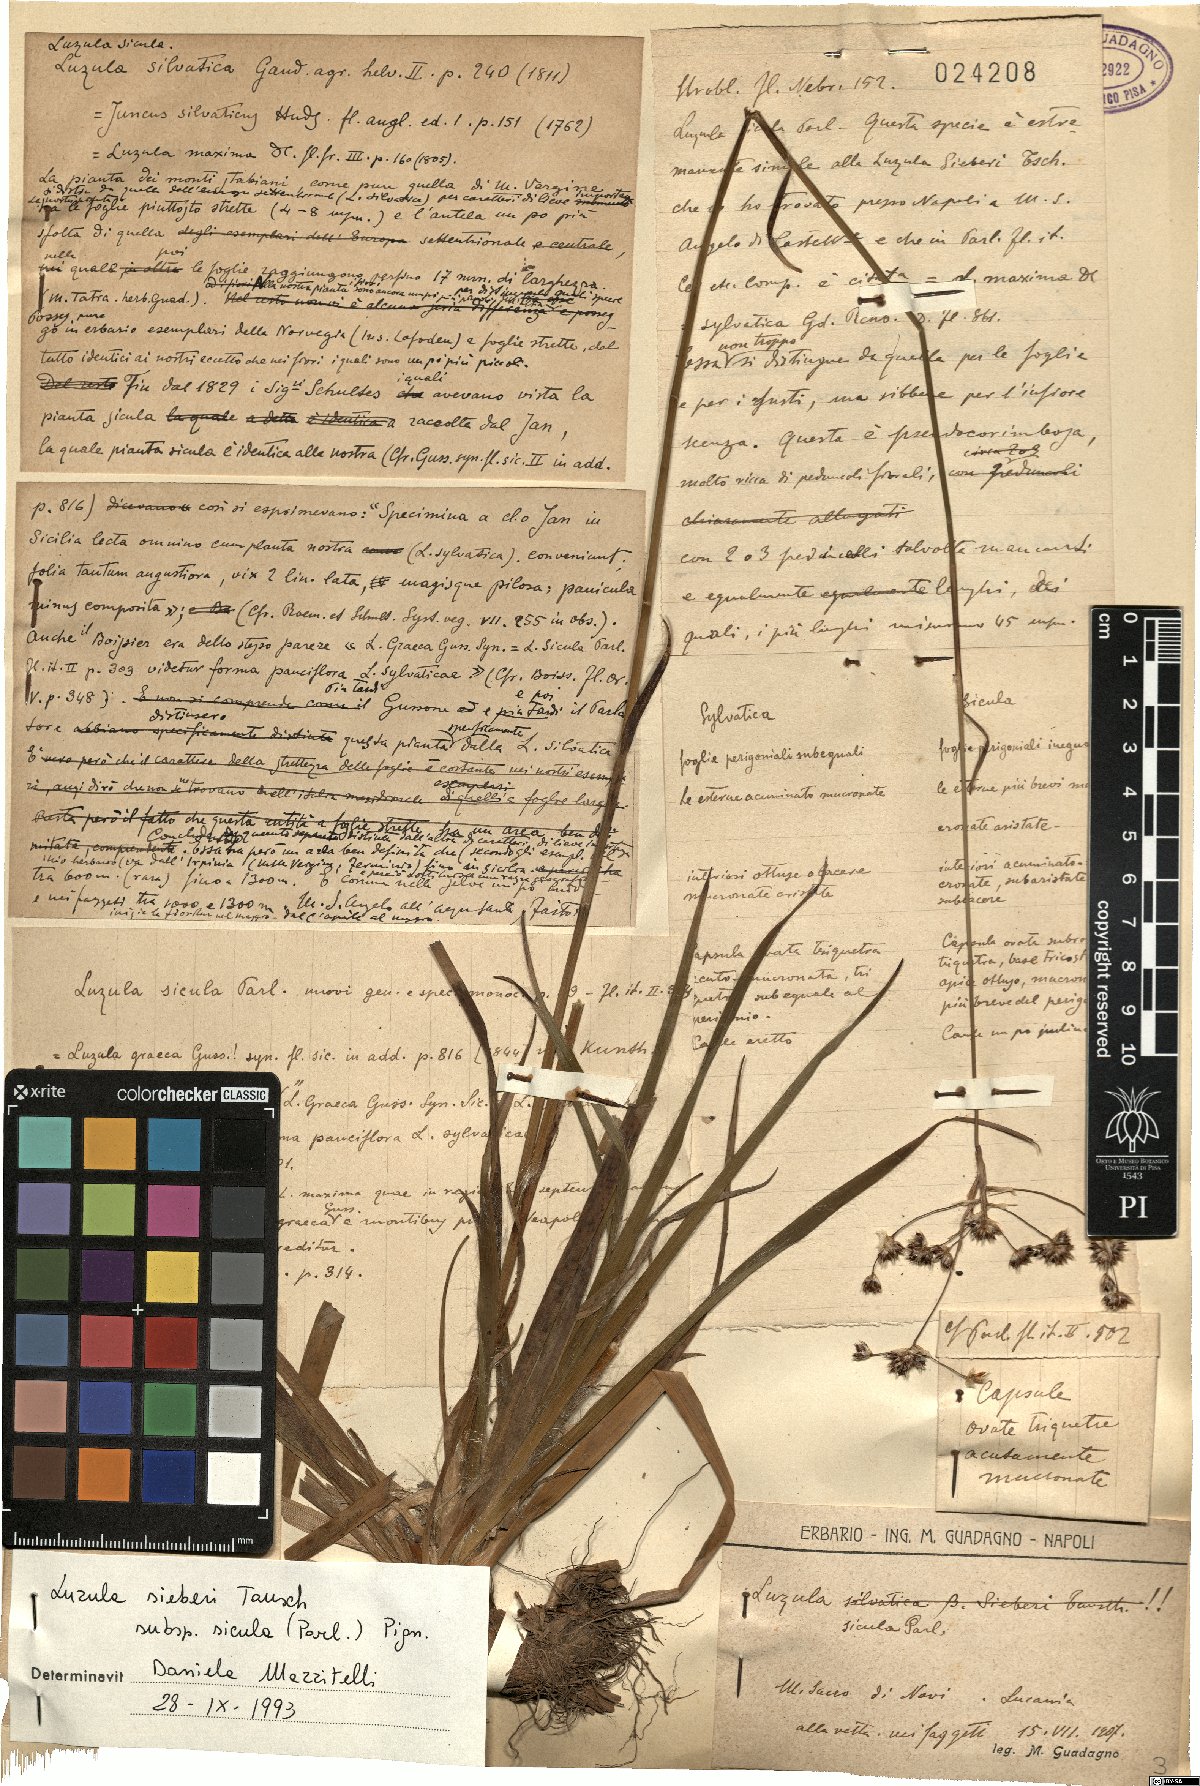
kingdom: Plantae
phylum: Tracheophyta
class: Liliopsida
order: Poales
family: Juncaceae
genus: Luzula
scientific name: Luzula sylvatica
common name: Great wood-rush
